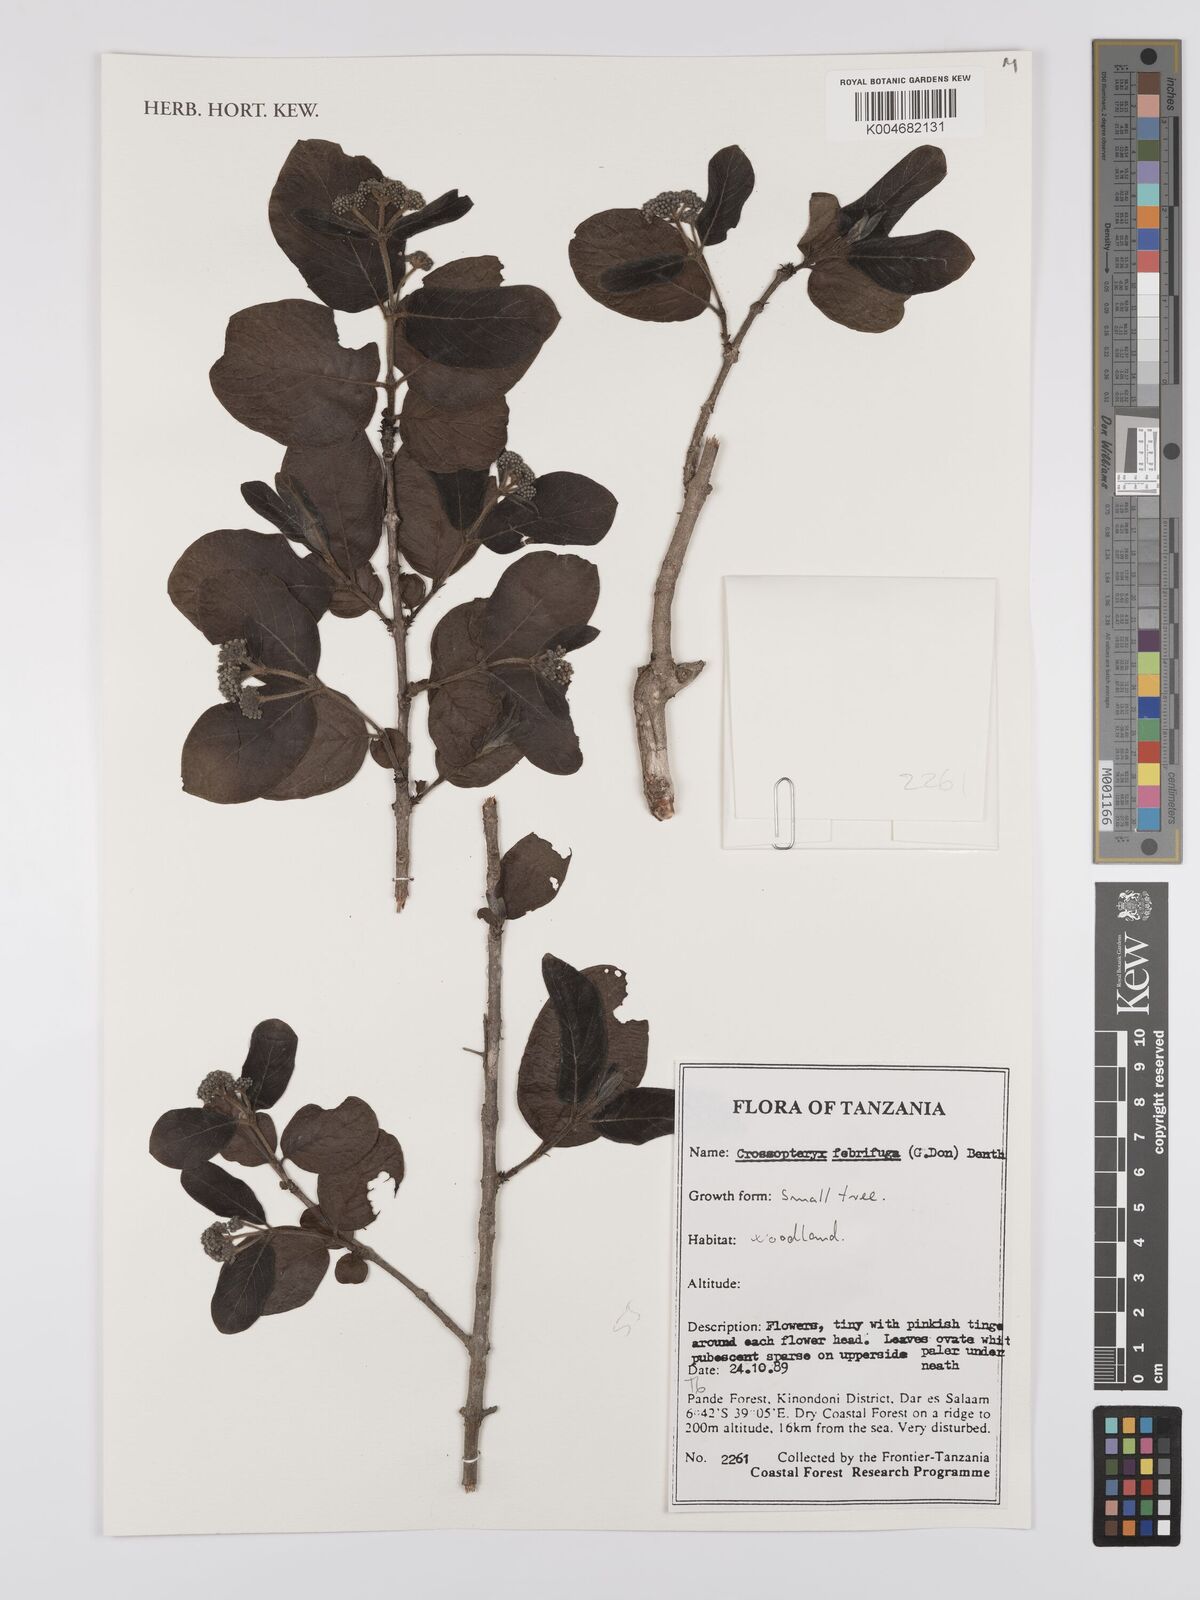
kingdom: Plantae
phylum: Tracheophyta
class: Magnoliopsida
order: Gentianales
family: Rubiaceae
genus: Crossopteryx
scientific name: Crossopteryx febrifuga
